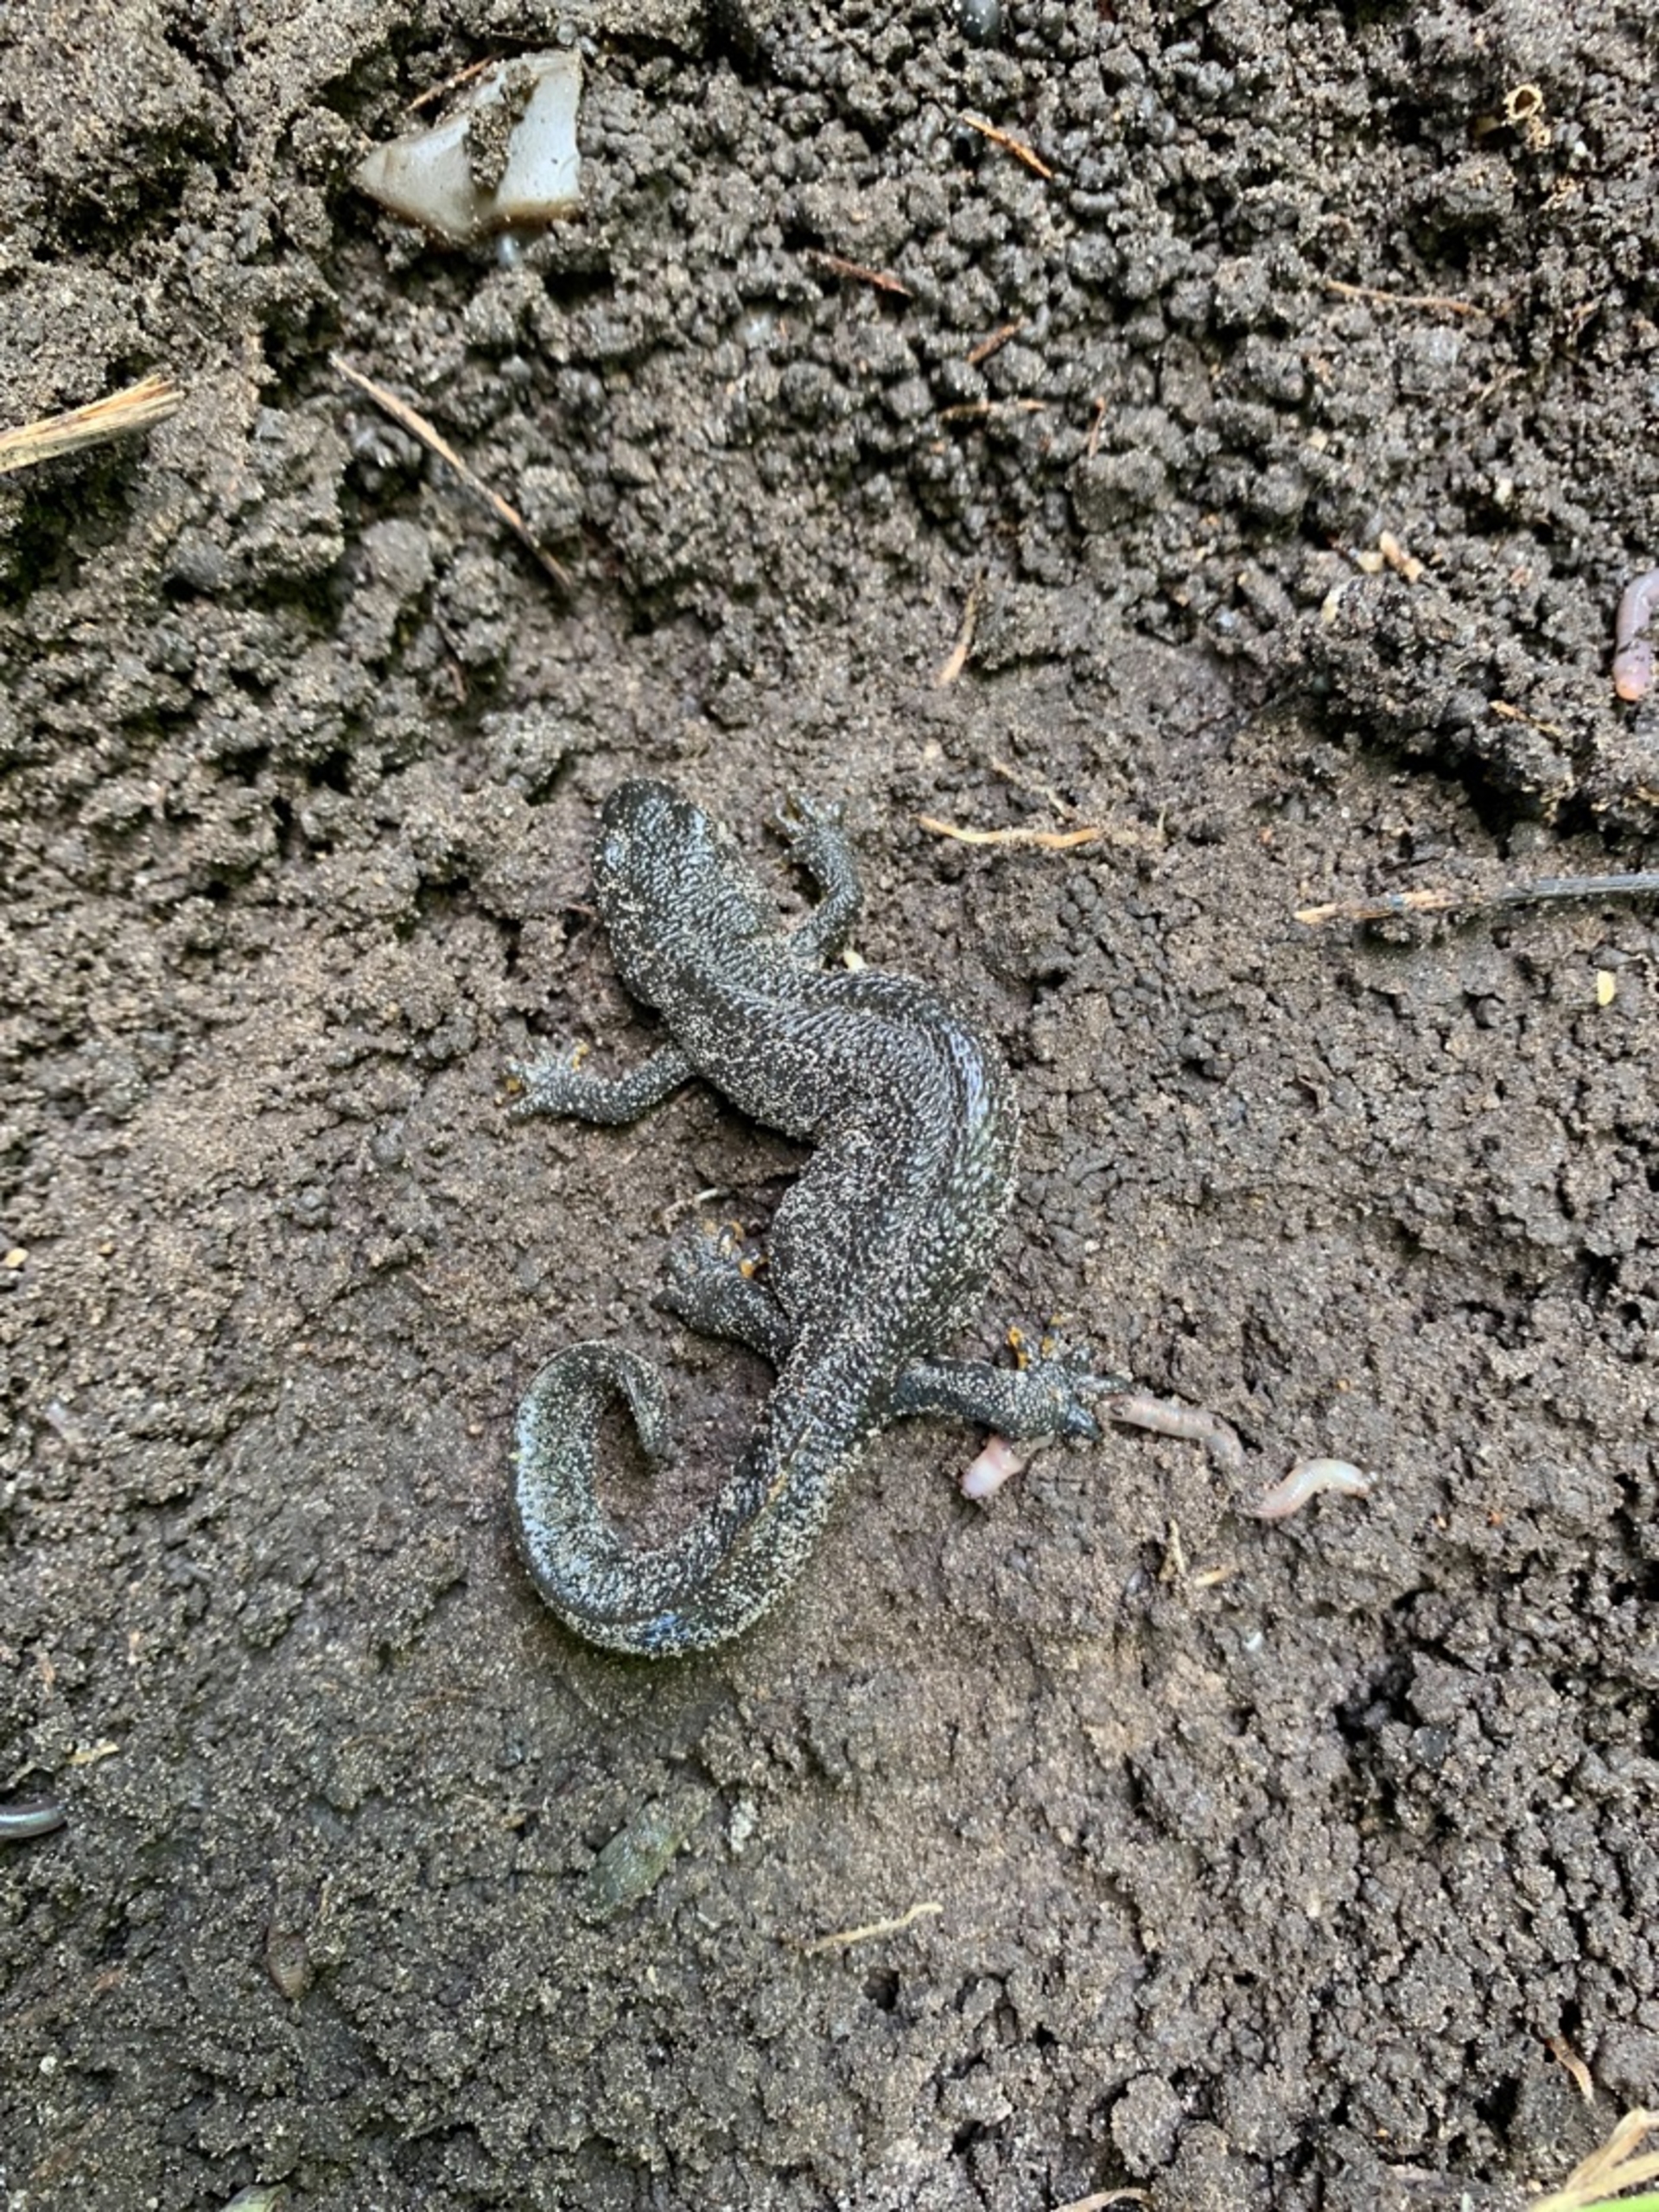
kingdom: Animalia
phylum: Chordata
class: Amphibia
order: Caudata
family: Salamandridae
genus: Triturus
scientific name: Triturus cristatus
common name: Stor vandsalamander
